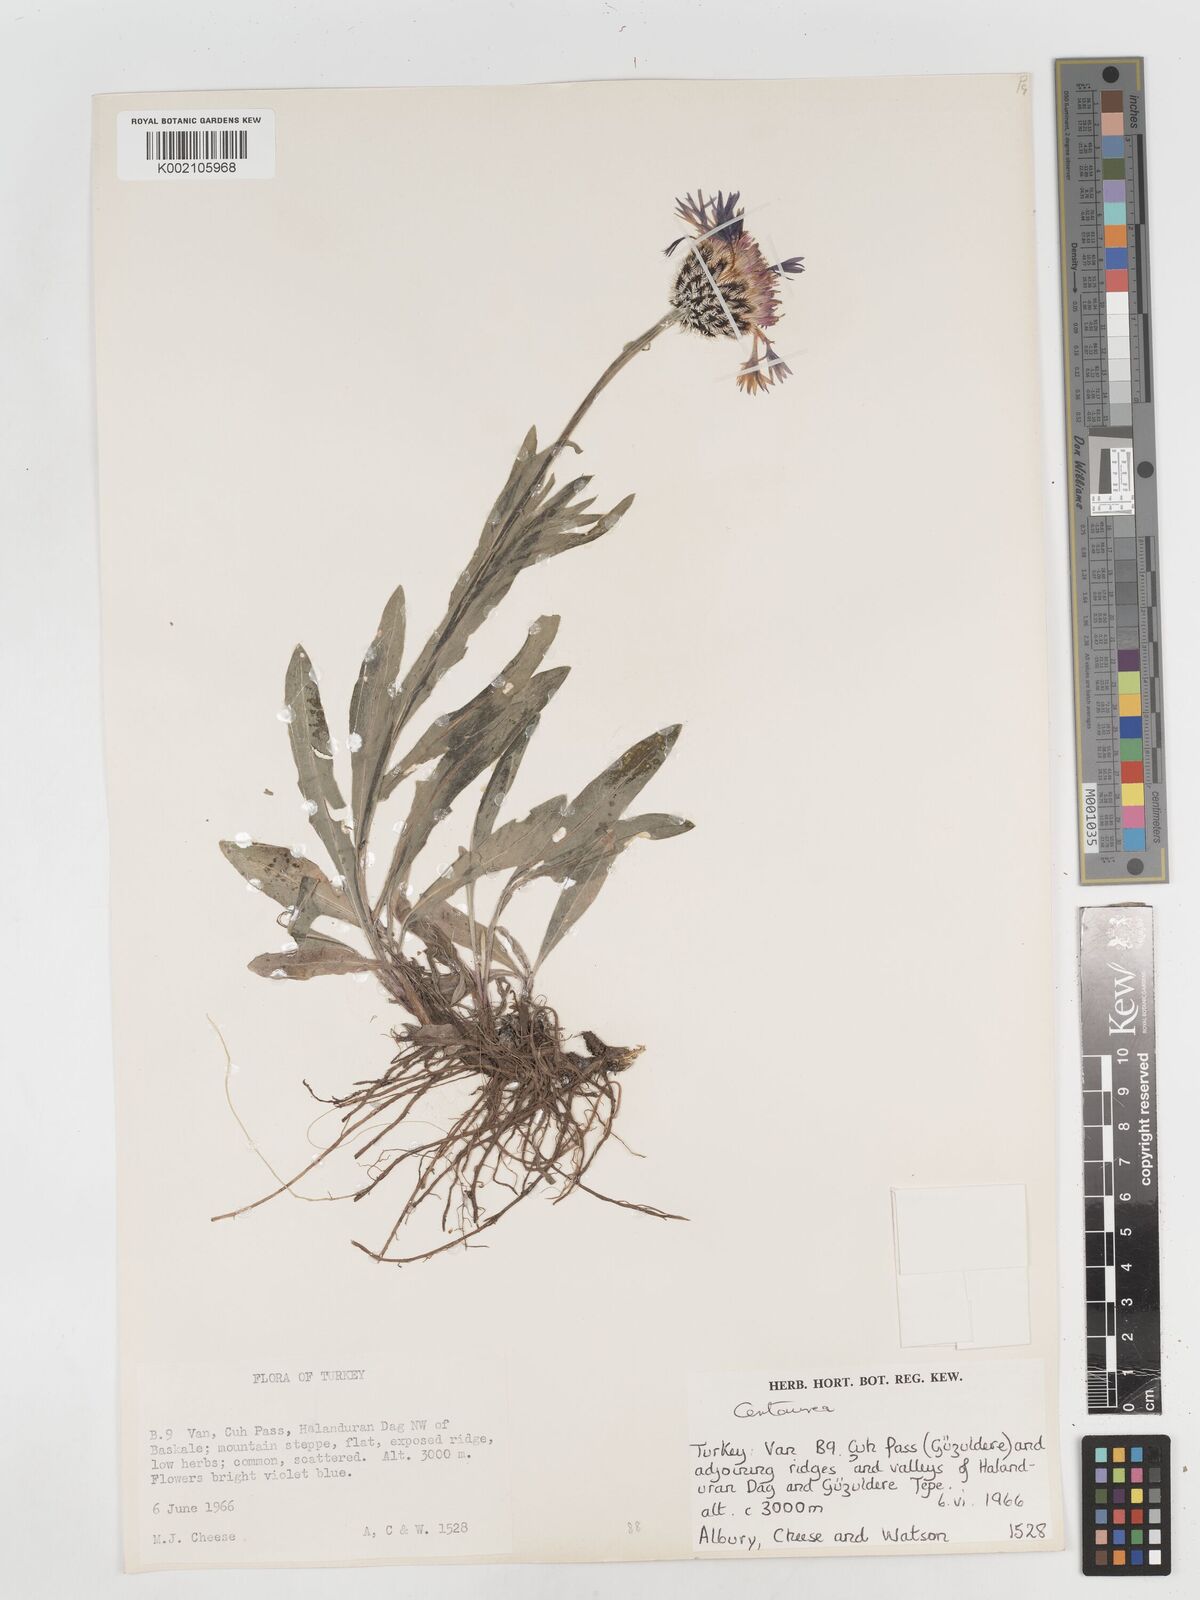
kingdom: Plantae
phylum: Tracheophyta
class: Magnoliopsida
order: Asterales
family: Asteraceae
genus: Centaurea
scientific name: Centaurea
